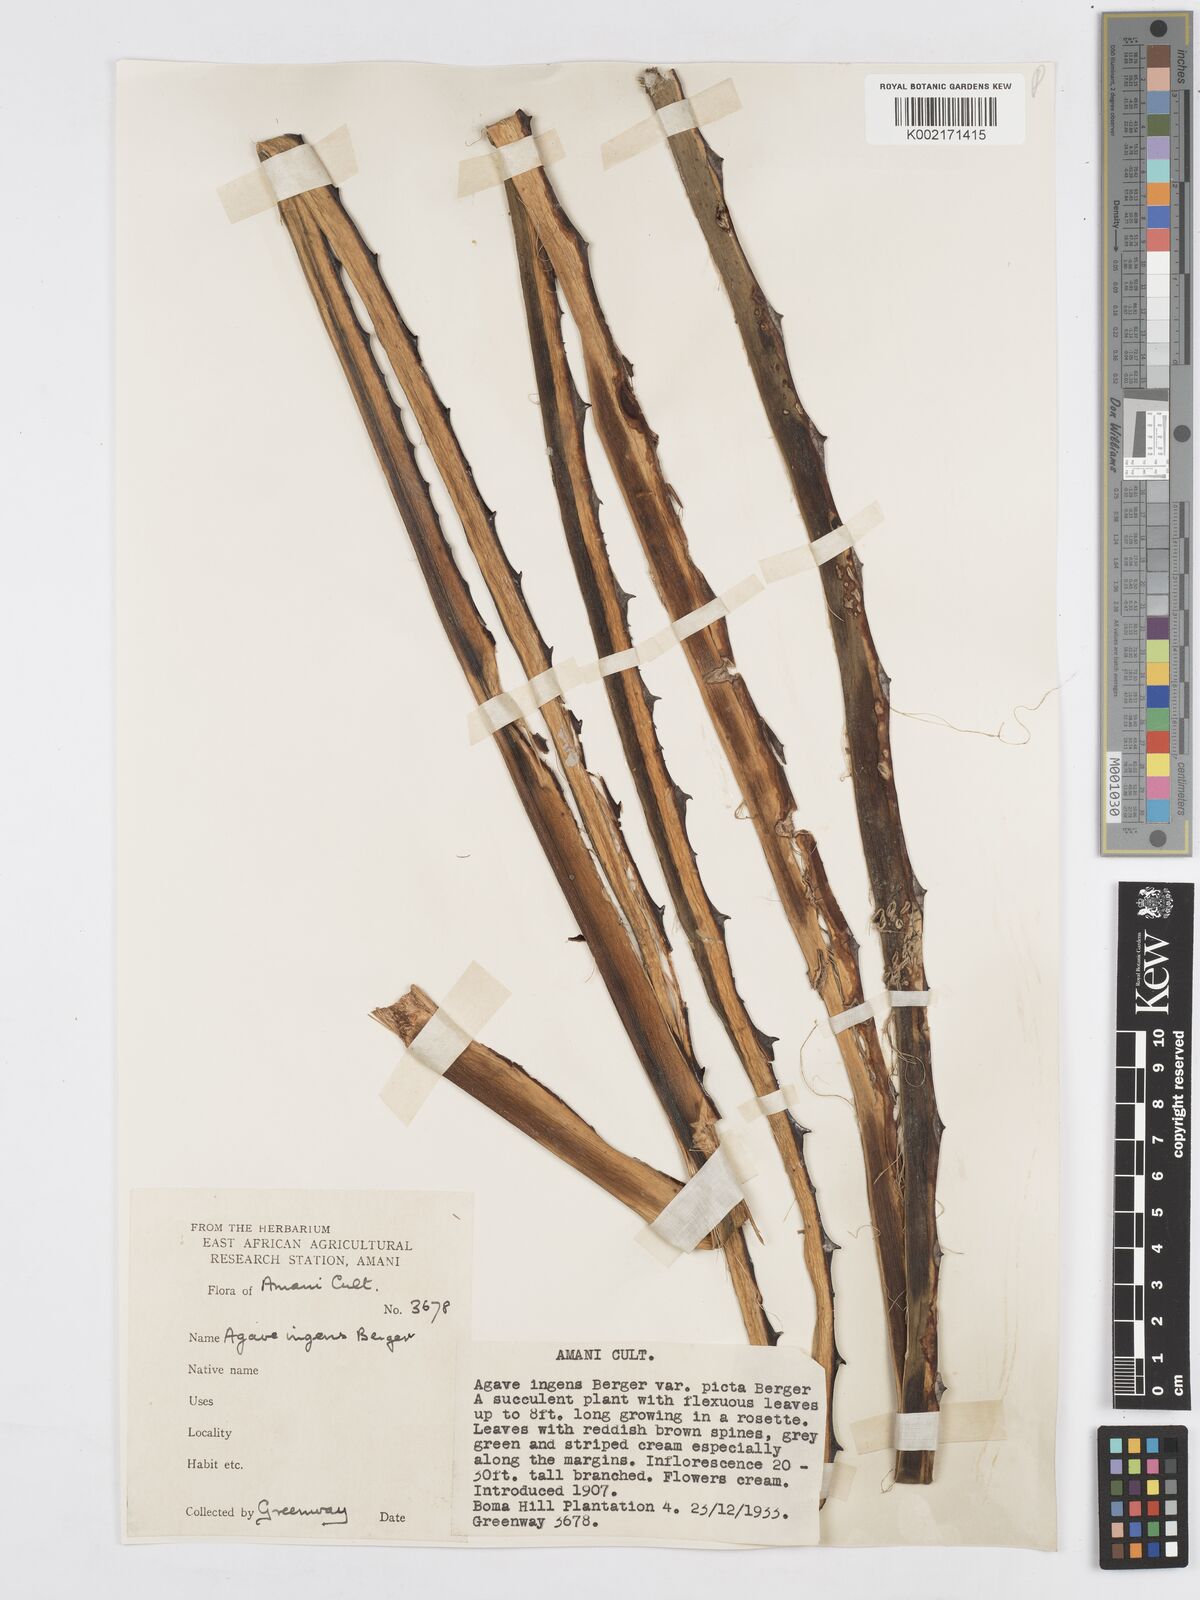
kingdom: Plantae
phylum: Tracheophyta
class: Liliopsida
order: Asparagales
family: Asparagaceae
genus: Agave
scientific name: Agave americana
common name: Centuryplant
